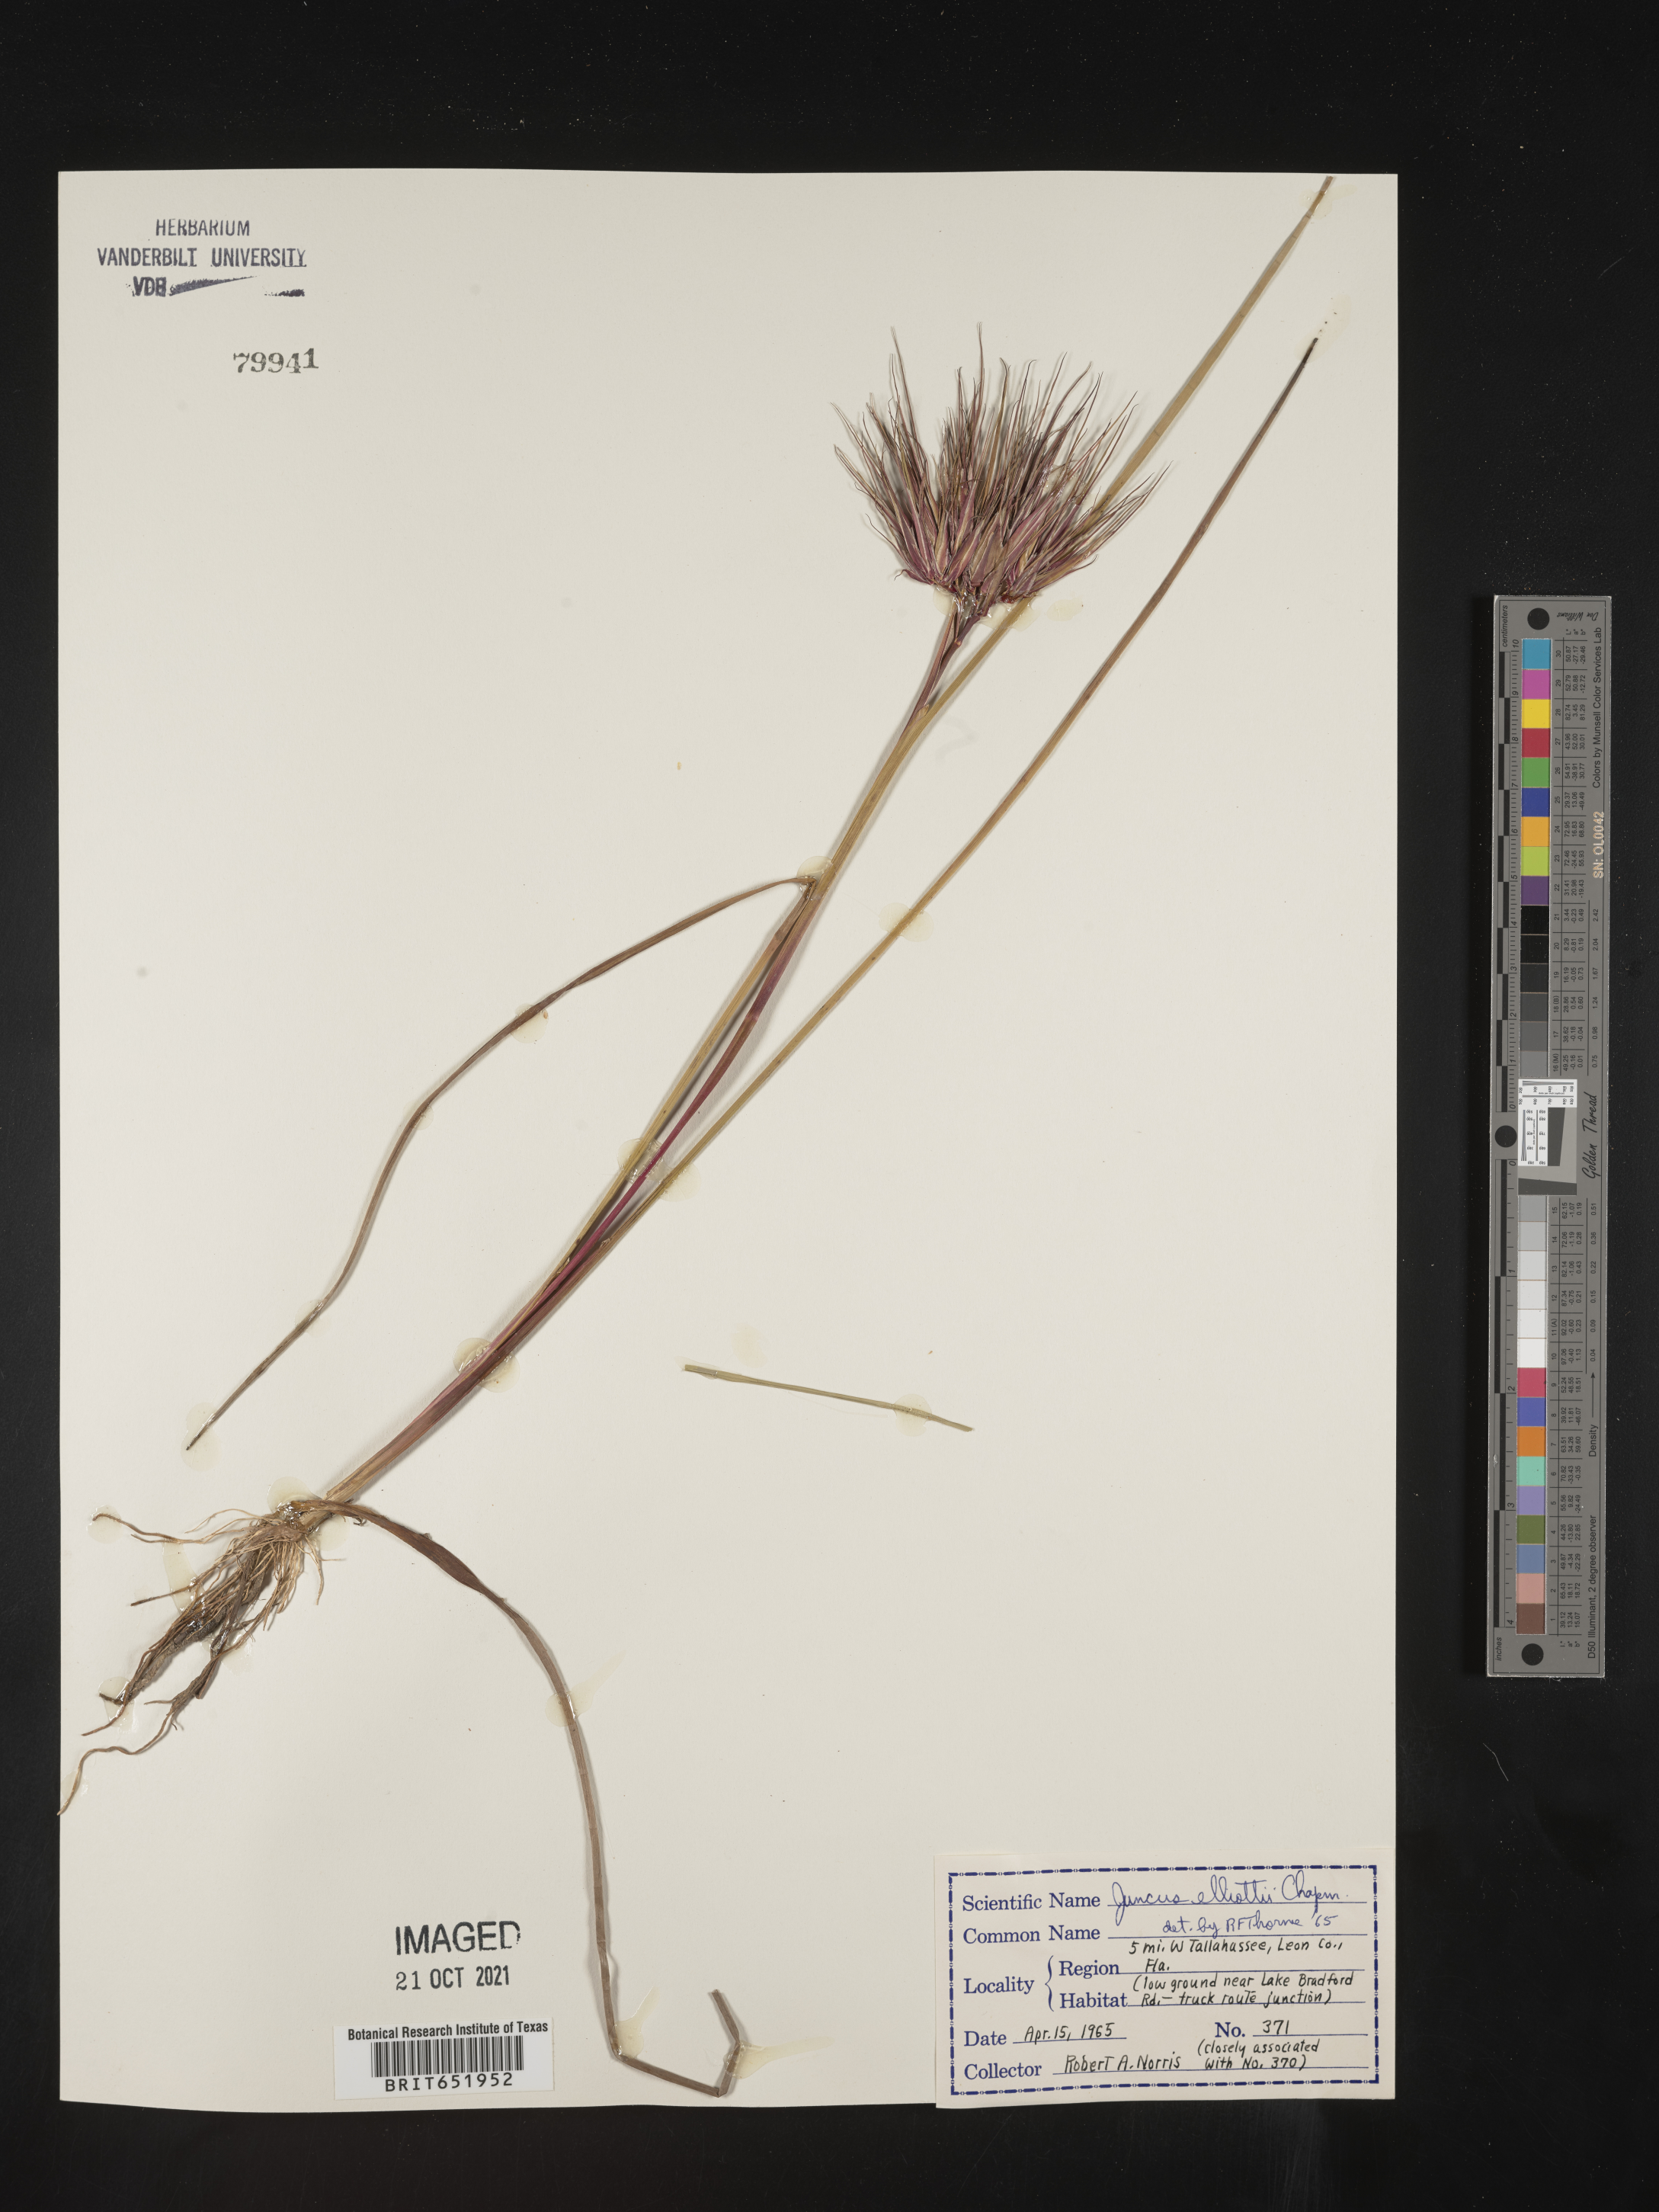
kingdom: Plantae
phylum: Tracheophyta
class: Liliopsida
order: Poales
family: Juncaceae
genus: Juncus
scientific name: Juncus elliottii
